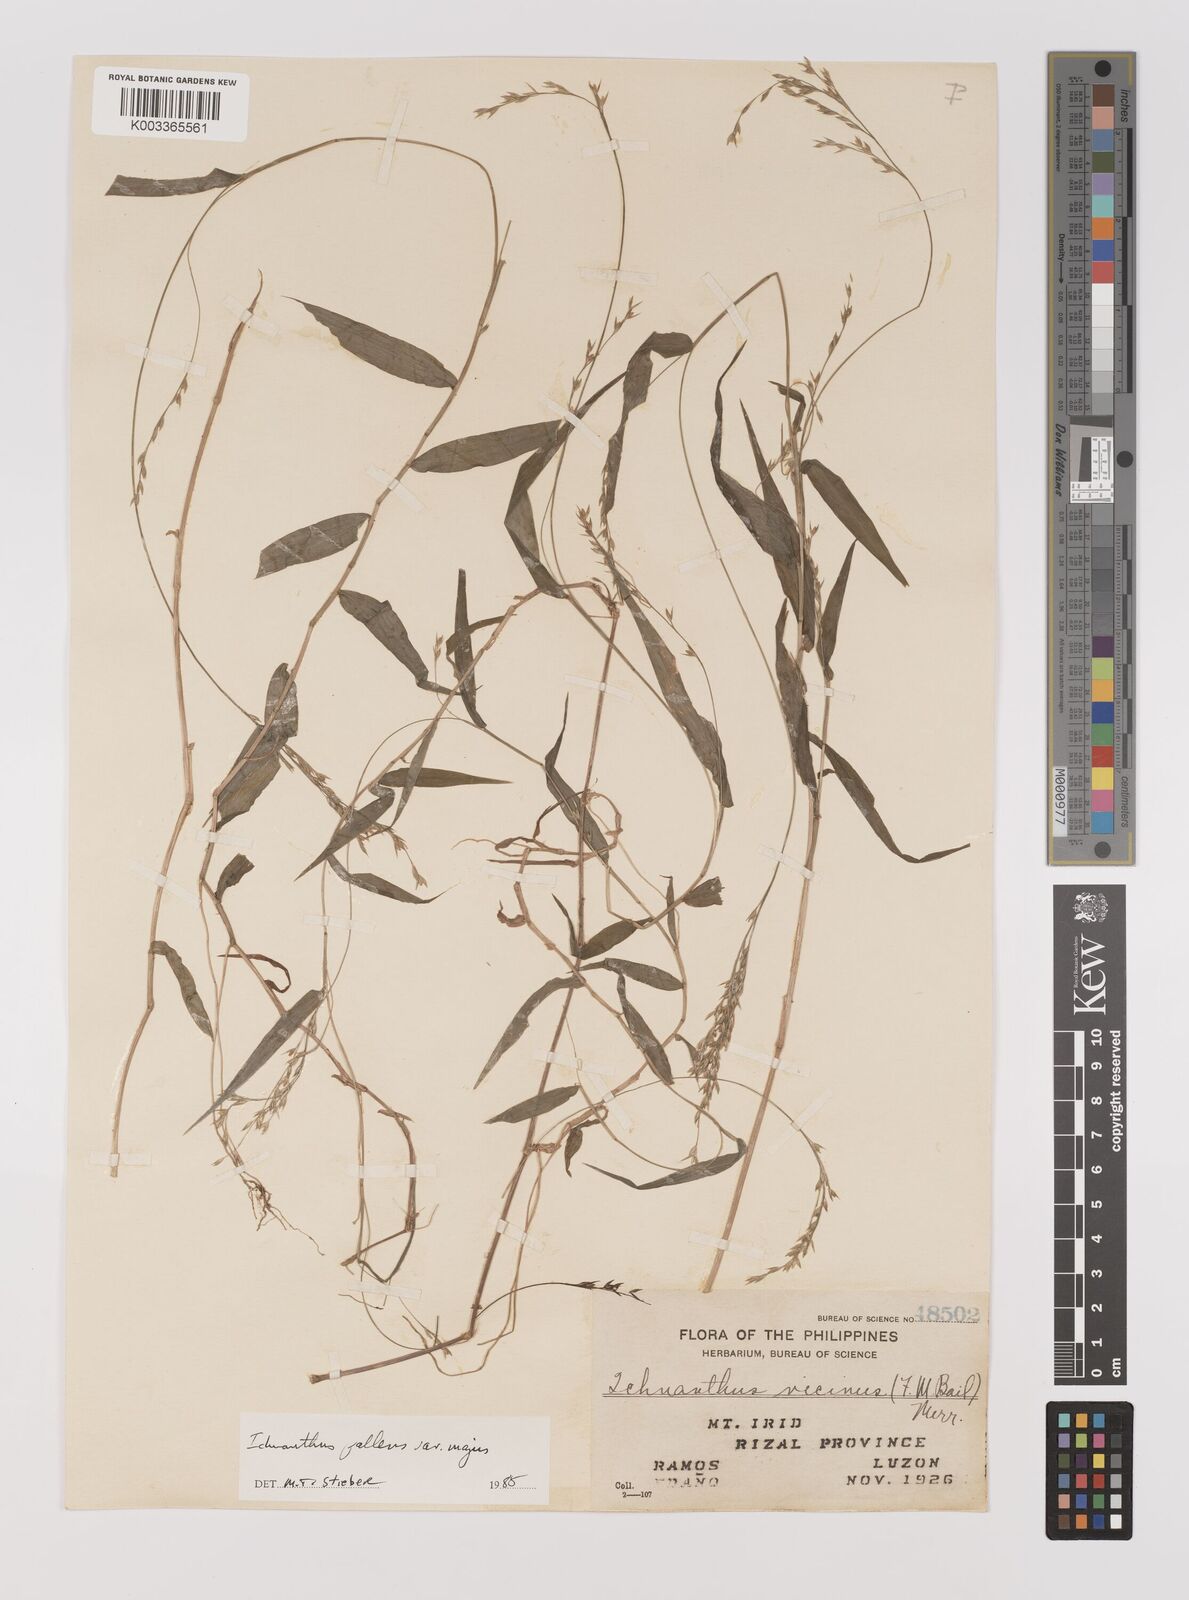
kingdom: Plantae
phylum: Tracheophyta
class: Liliopsida
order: Poales
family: Poaceae
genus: Ichnanthus
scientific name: Ichnanthus pallens
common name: Water grass
